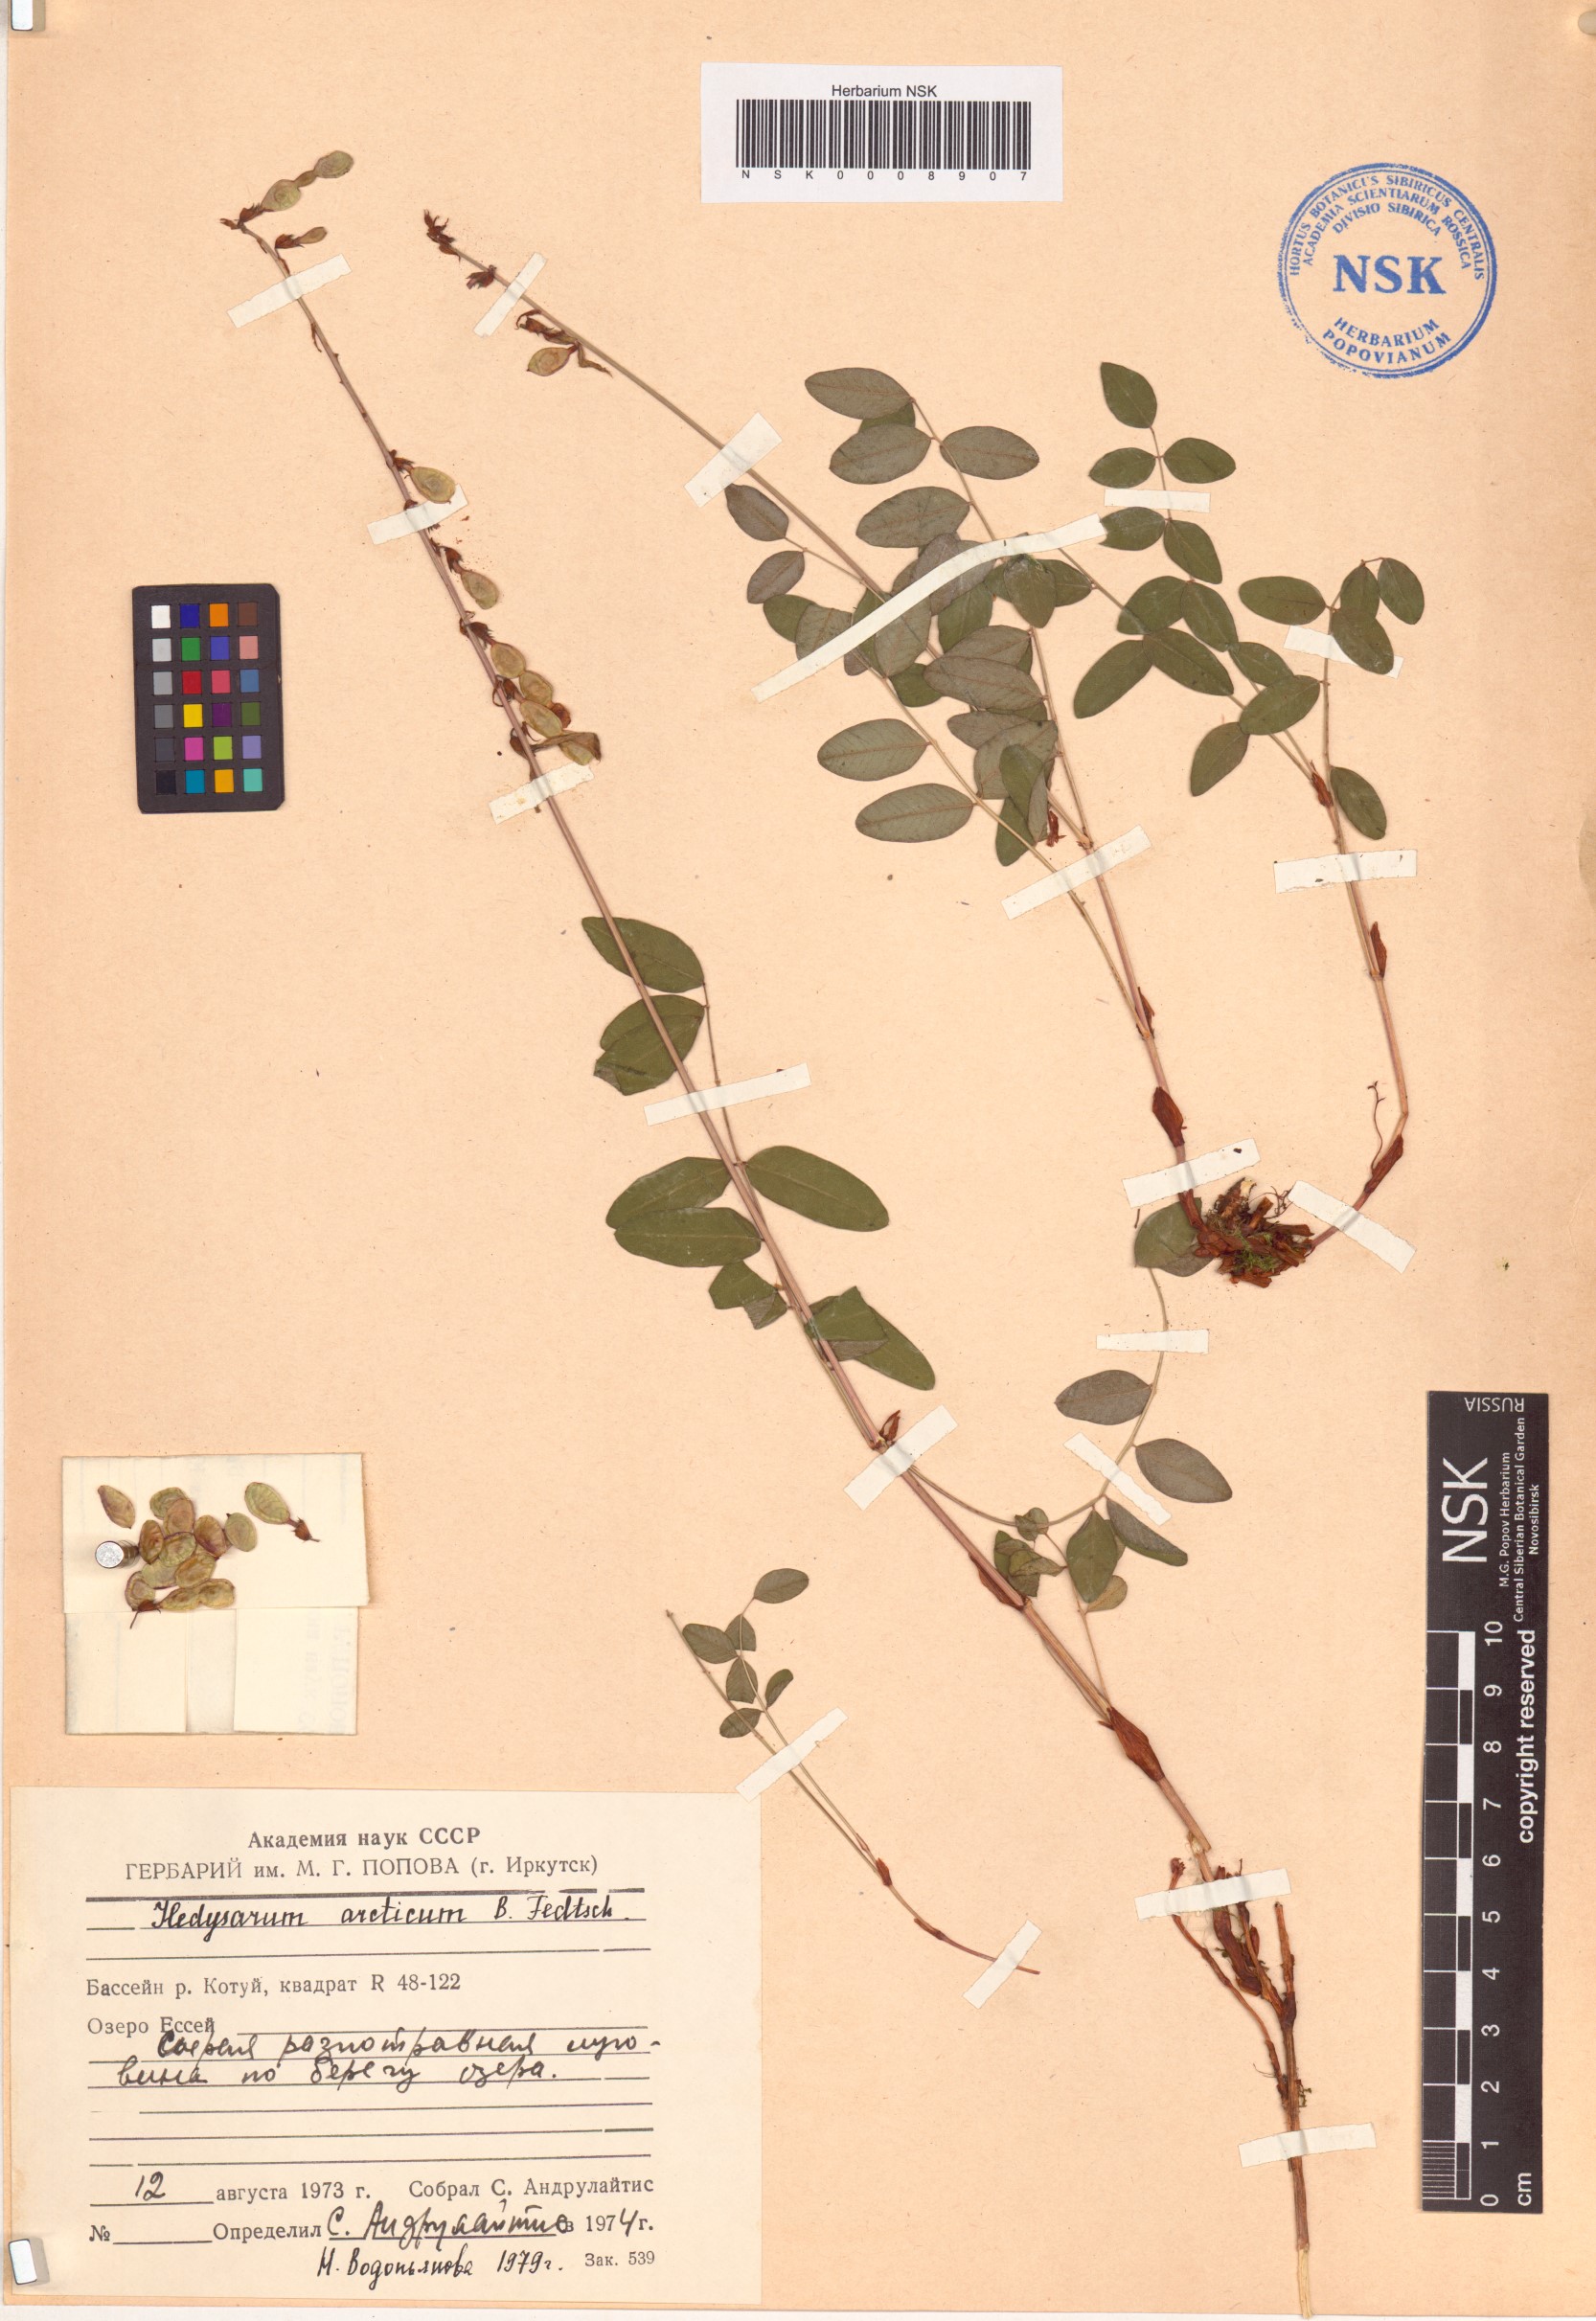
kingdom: Plantae
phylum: Tracheophyta
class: Magnoliopsida
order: Fabales
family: Fabaceae
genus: Hedysarum
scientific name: Hedysarum hedysaroides
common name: Alpine french-honeysuckle
